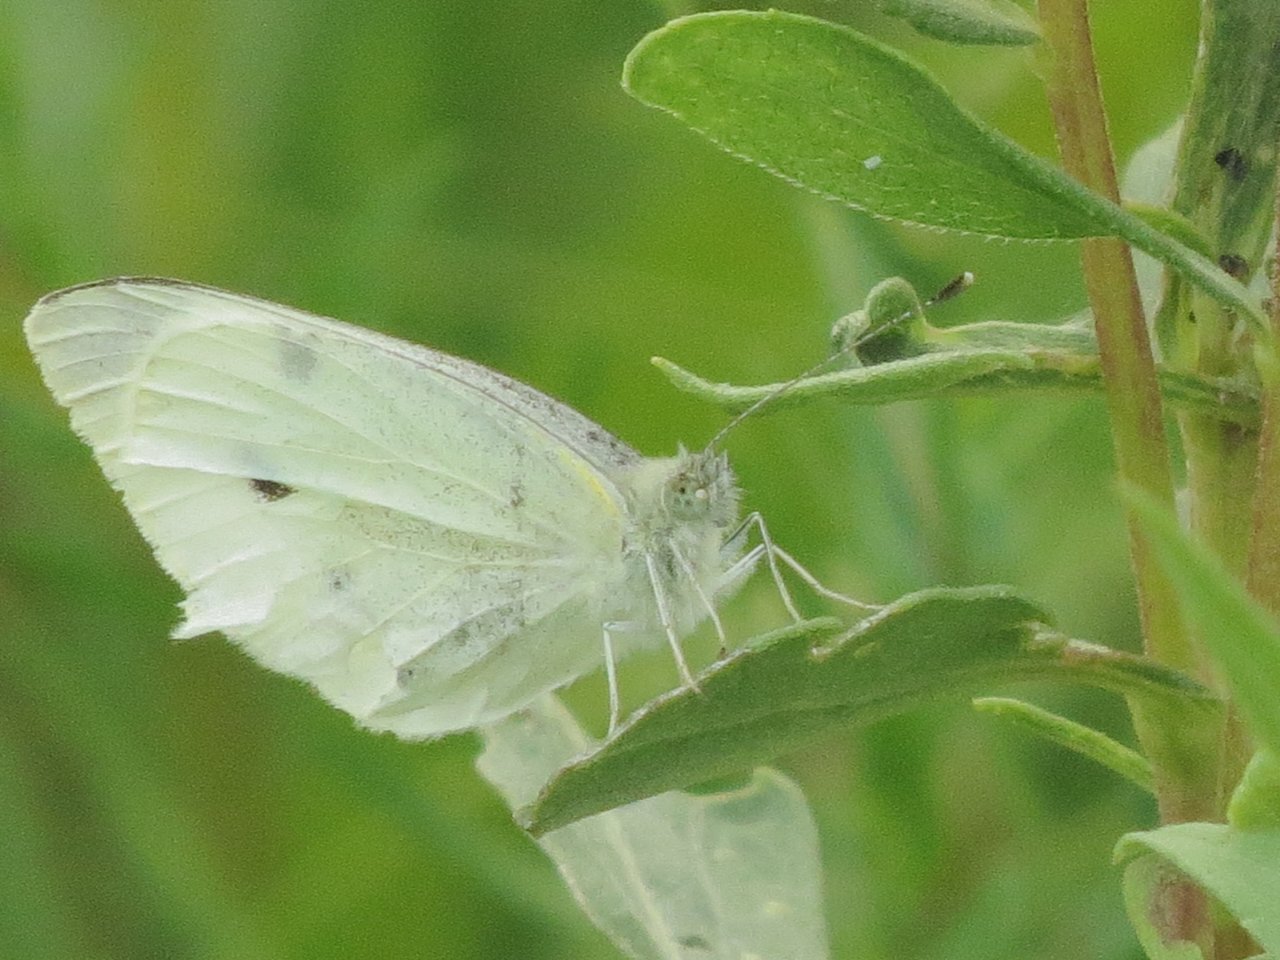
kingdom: Animalia
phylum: Arthropoda
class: Insecta
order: Lepidoptera
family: Pieridae
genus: Pieris
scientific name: Pieris rapae
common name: Cabbage White
